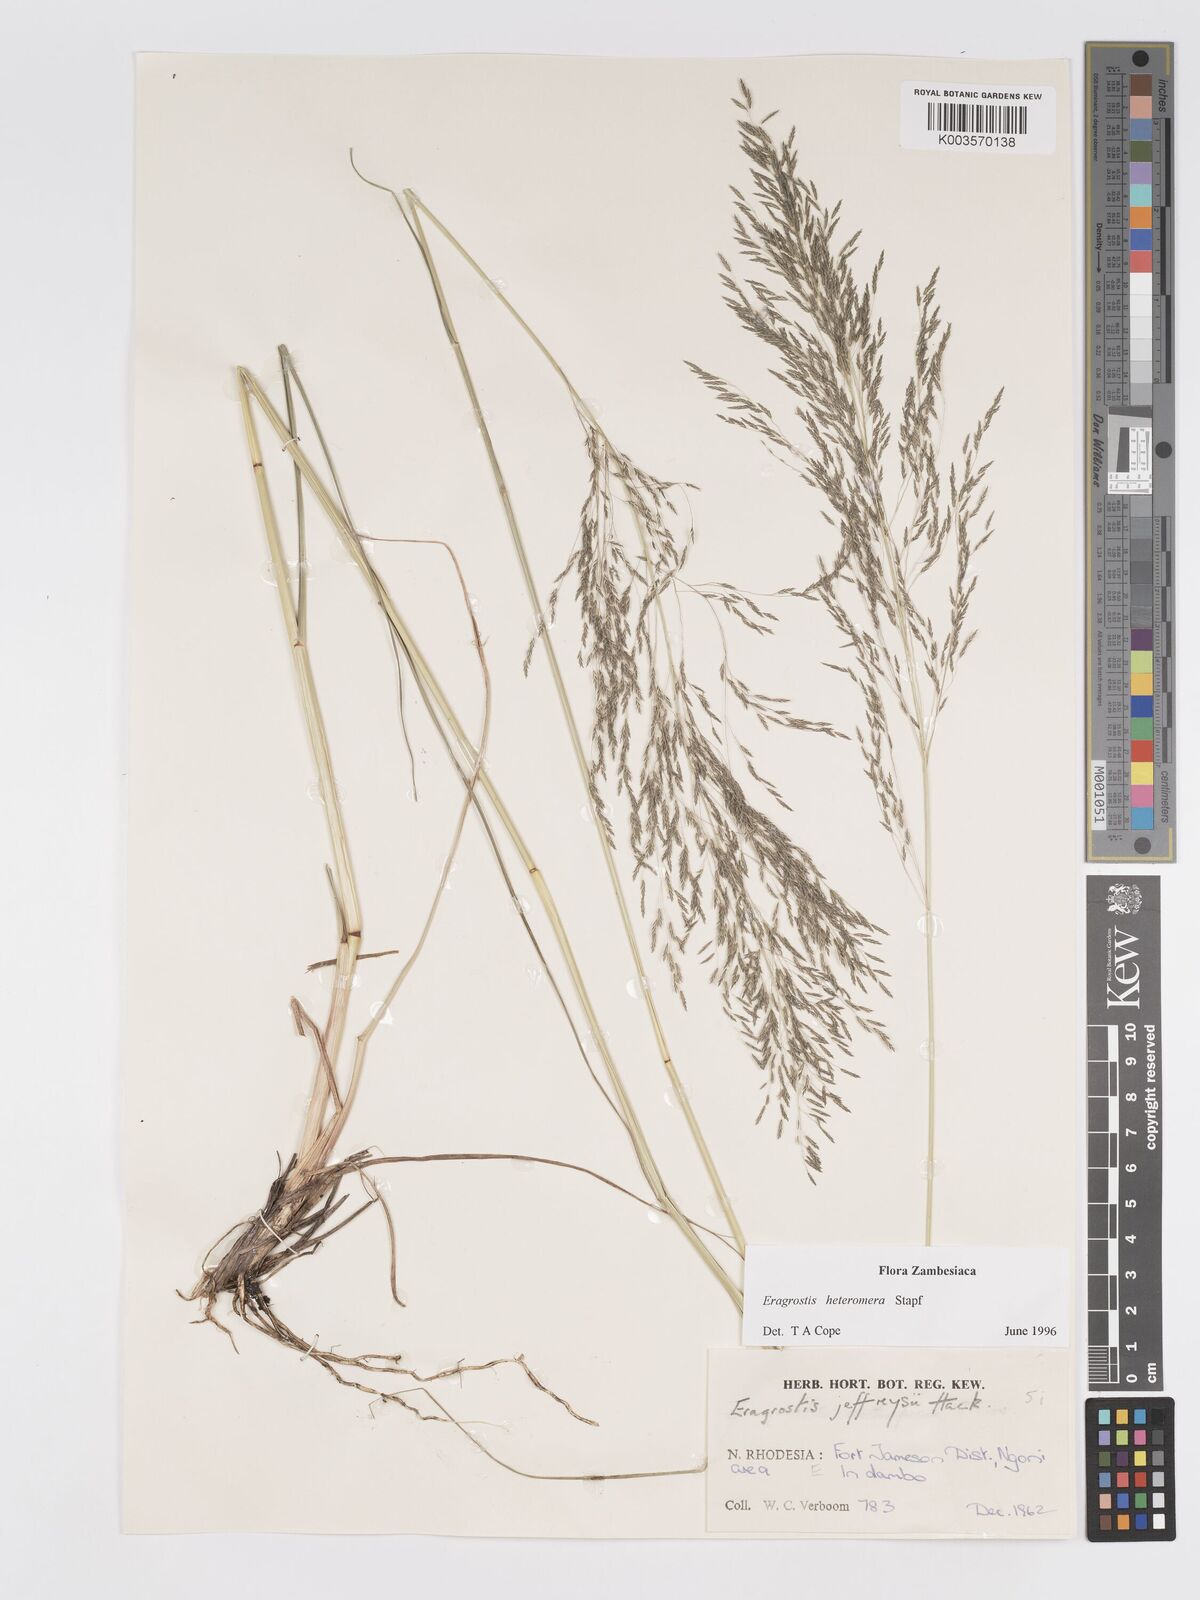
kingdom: Plantae
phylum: Tracheophyta
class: Liliopsida
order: Poales
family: Poaceae
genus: Eragrostis
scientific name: Eragrostis heteromera
